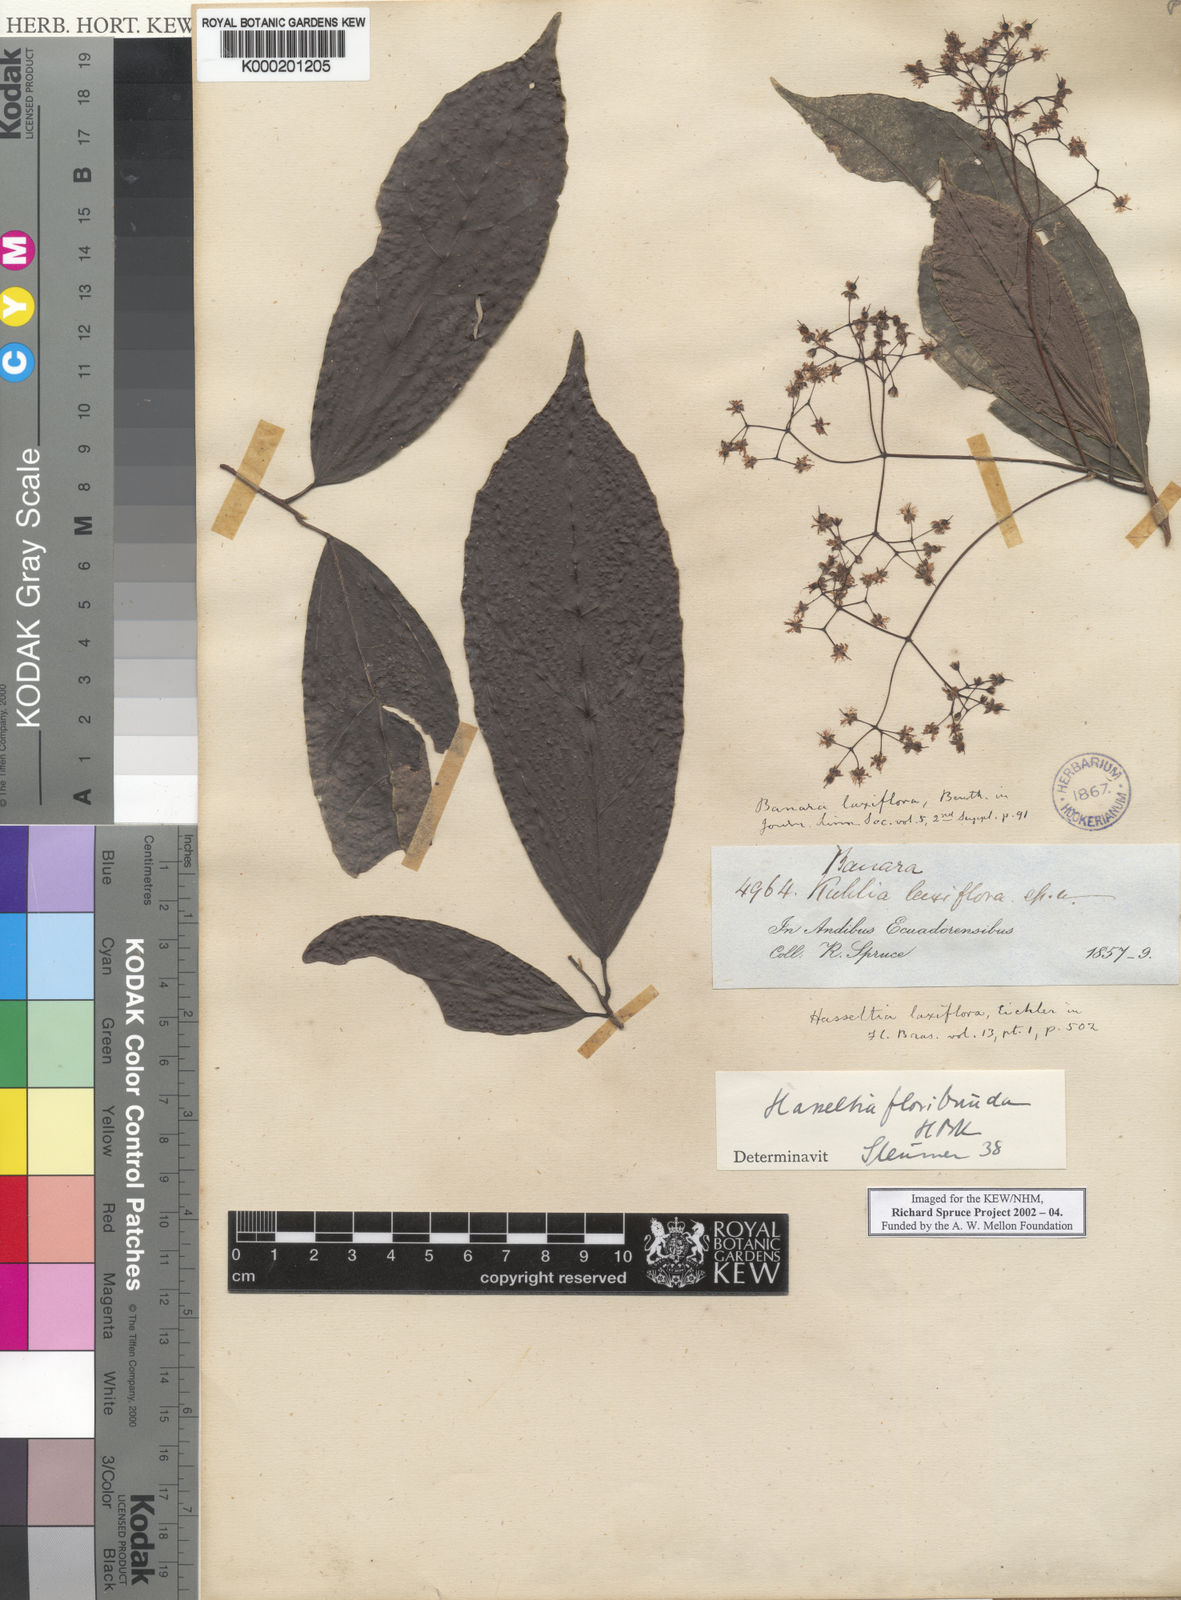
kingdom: Plantae
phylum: Tracheophyta
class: Magnoliopsida
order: Malpighiales
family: Salicaceae
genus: Hasseltia
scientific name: Hasseltia floribunda
